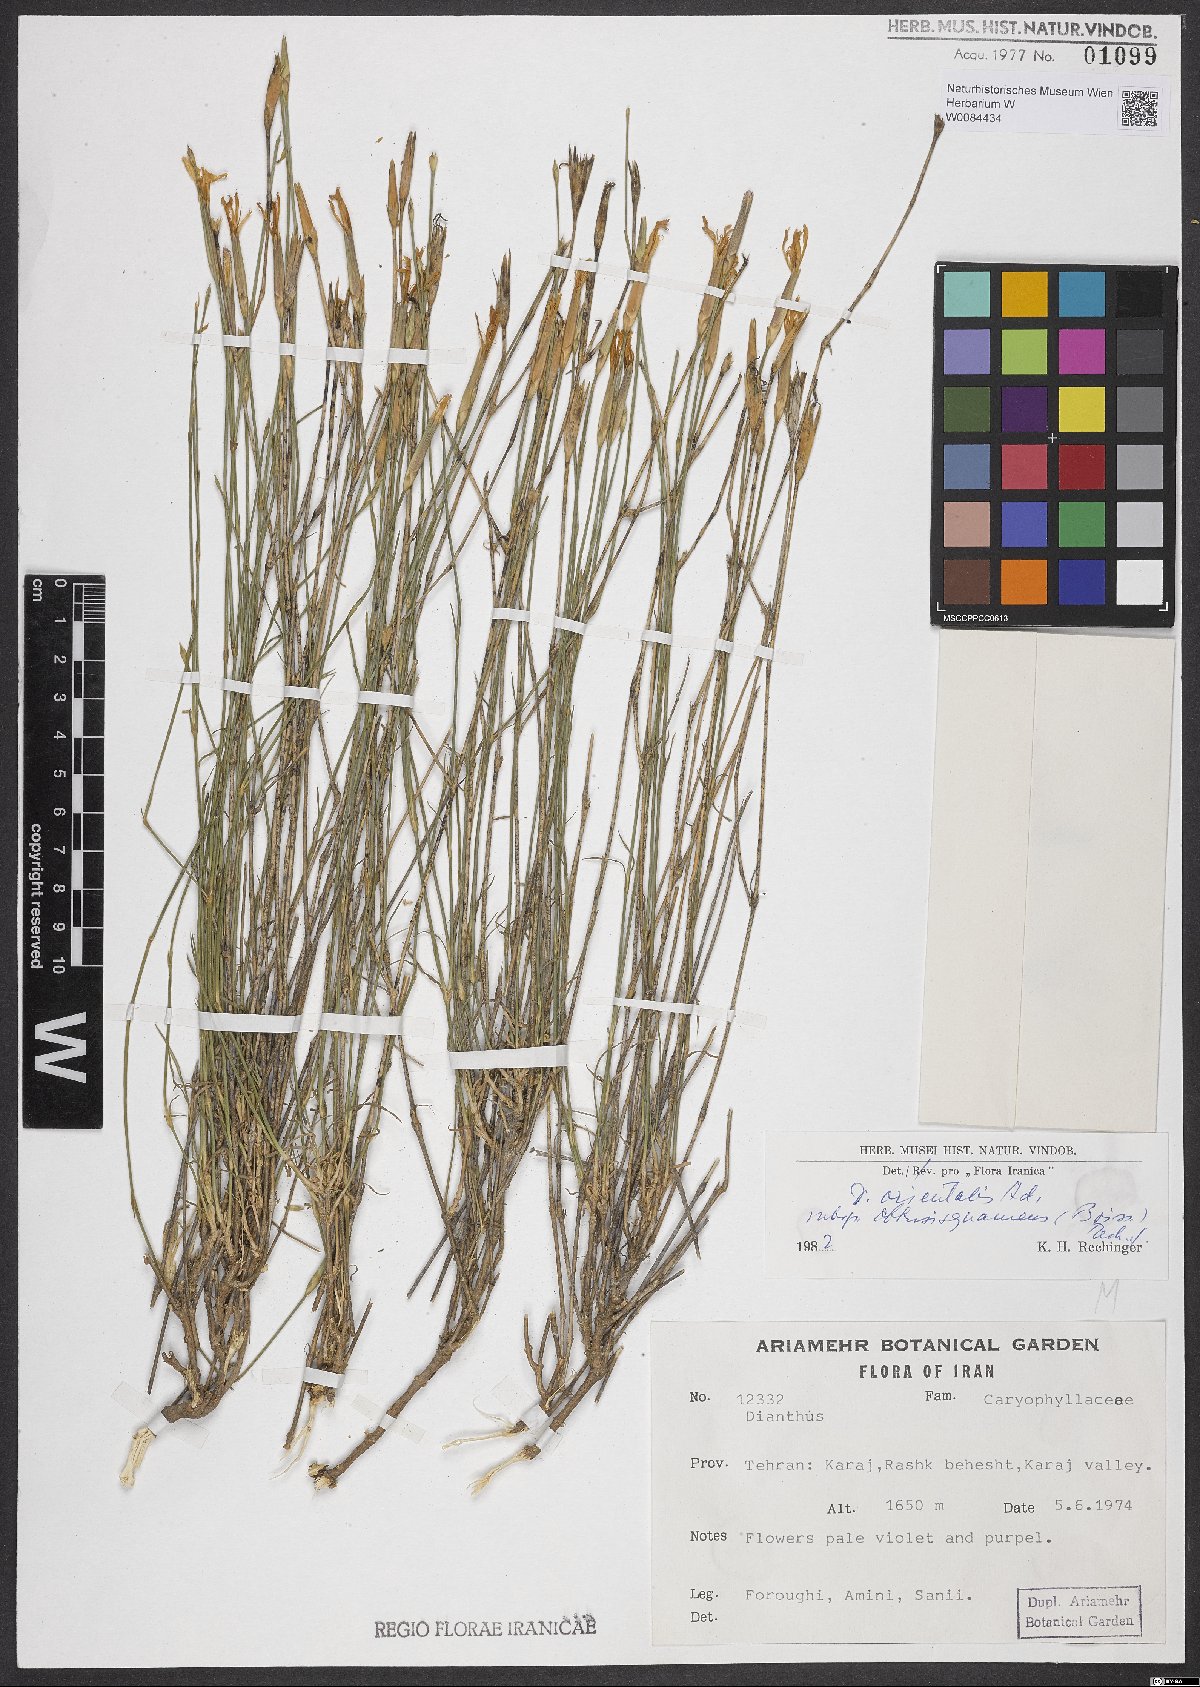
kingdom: Plantae
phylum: Tracheophyta
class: Magnoliopsida
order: Caryophyllales
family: Caryophyllaceae
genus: Dianthus
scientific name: Dianthus orientalis
